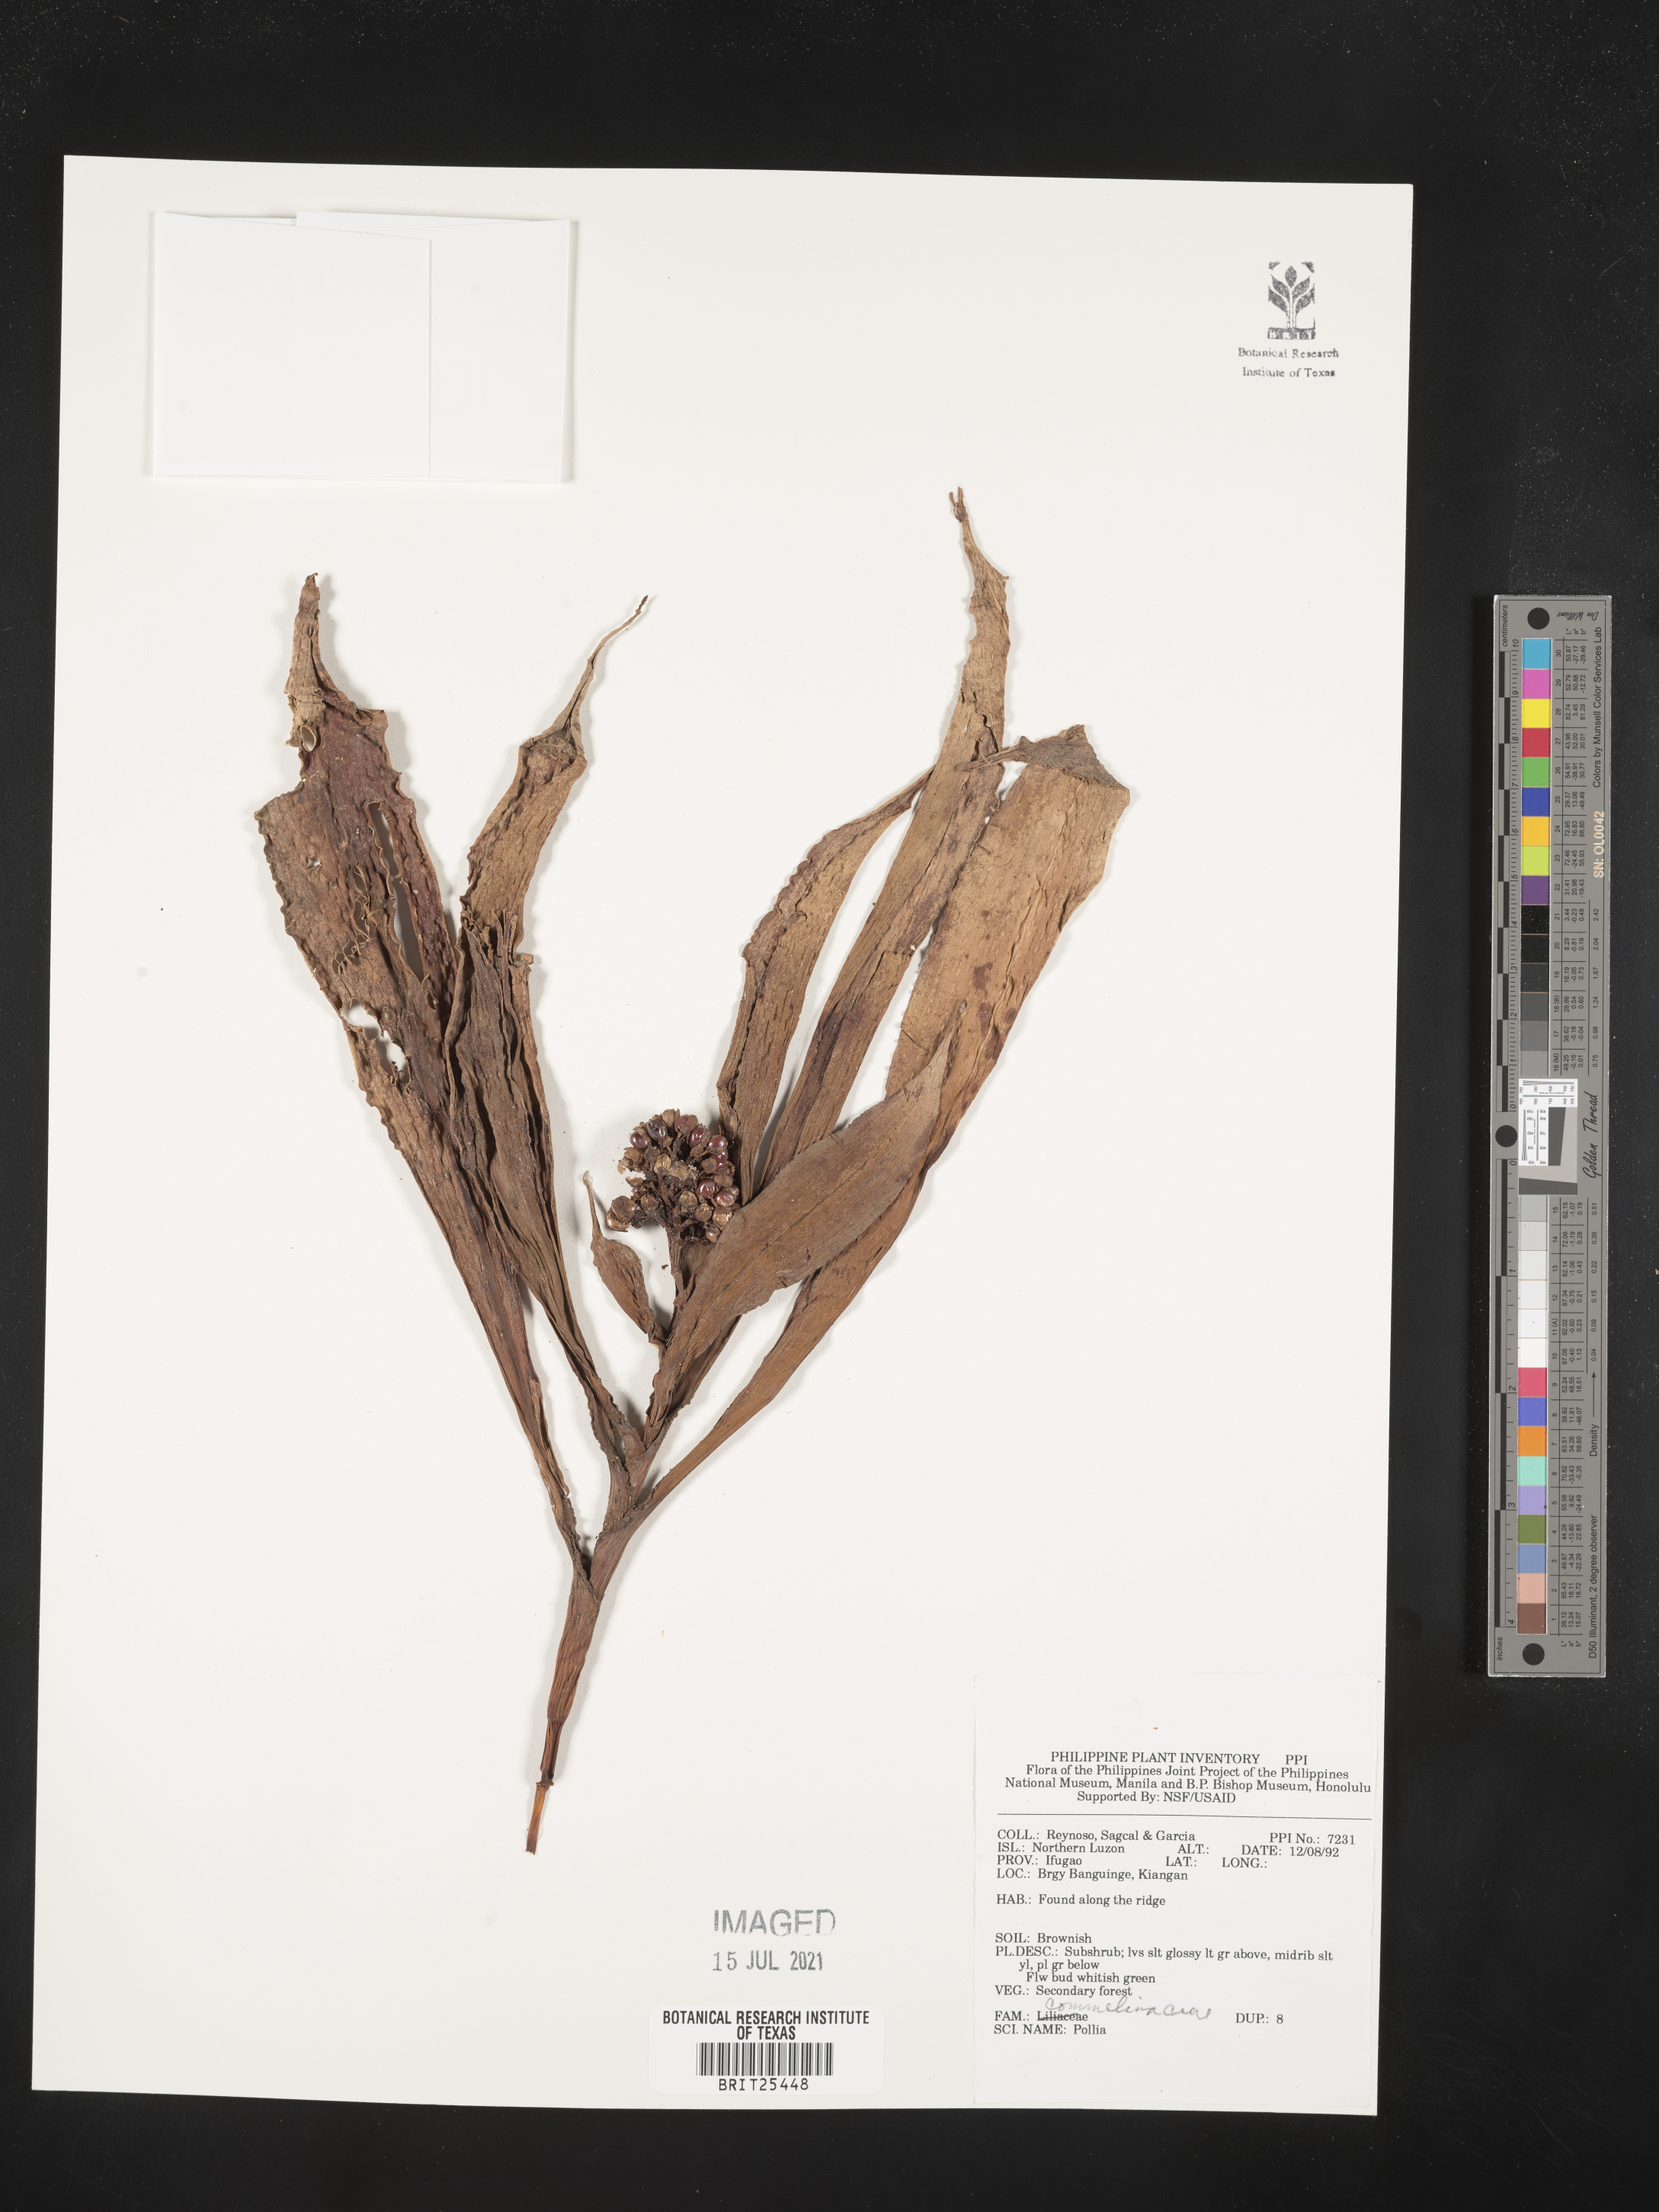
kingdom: Plantae
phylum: Tracheophyta
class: Liliopsida
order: Commelinales
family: Commelinaceae
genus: Pollia
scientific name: Pollia
